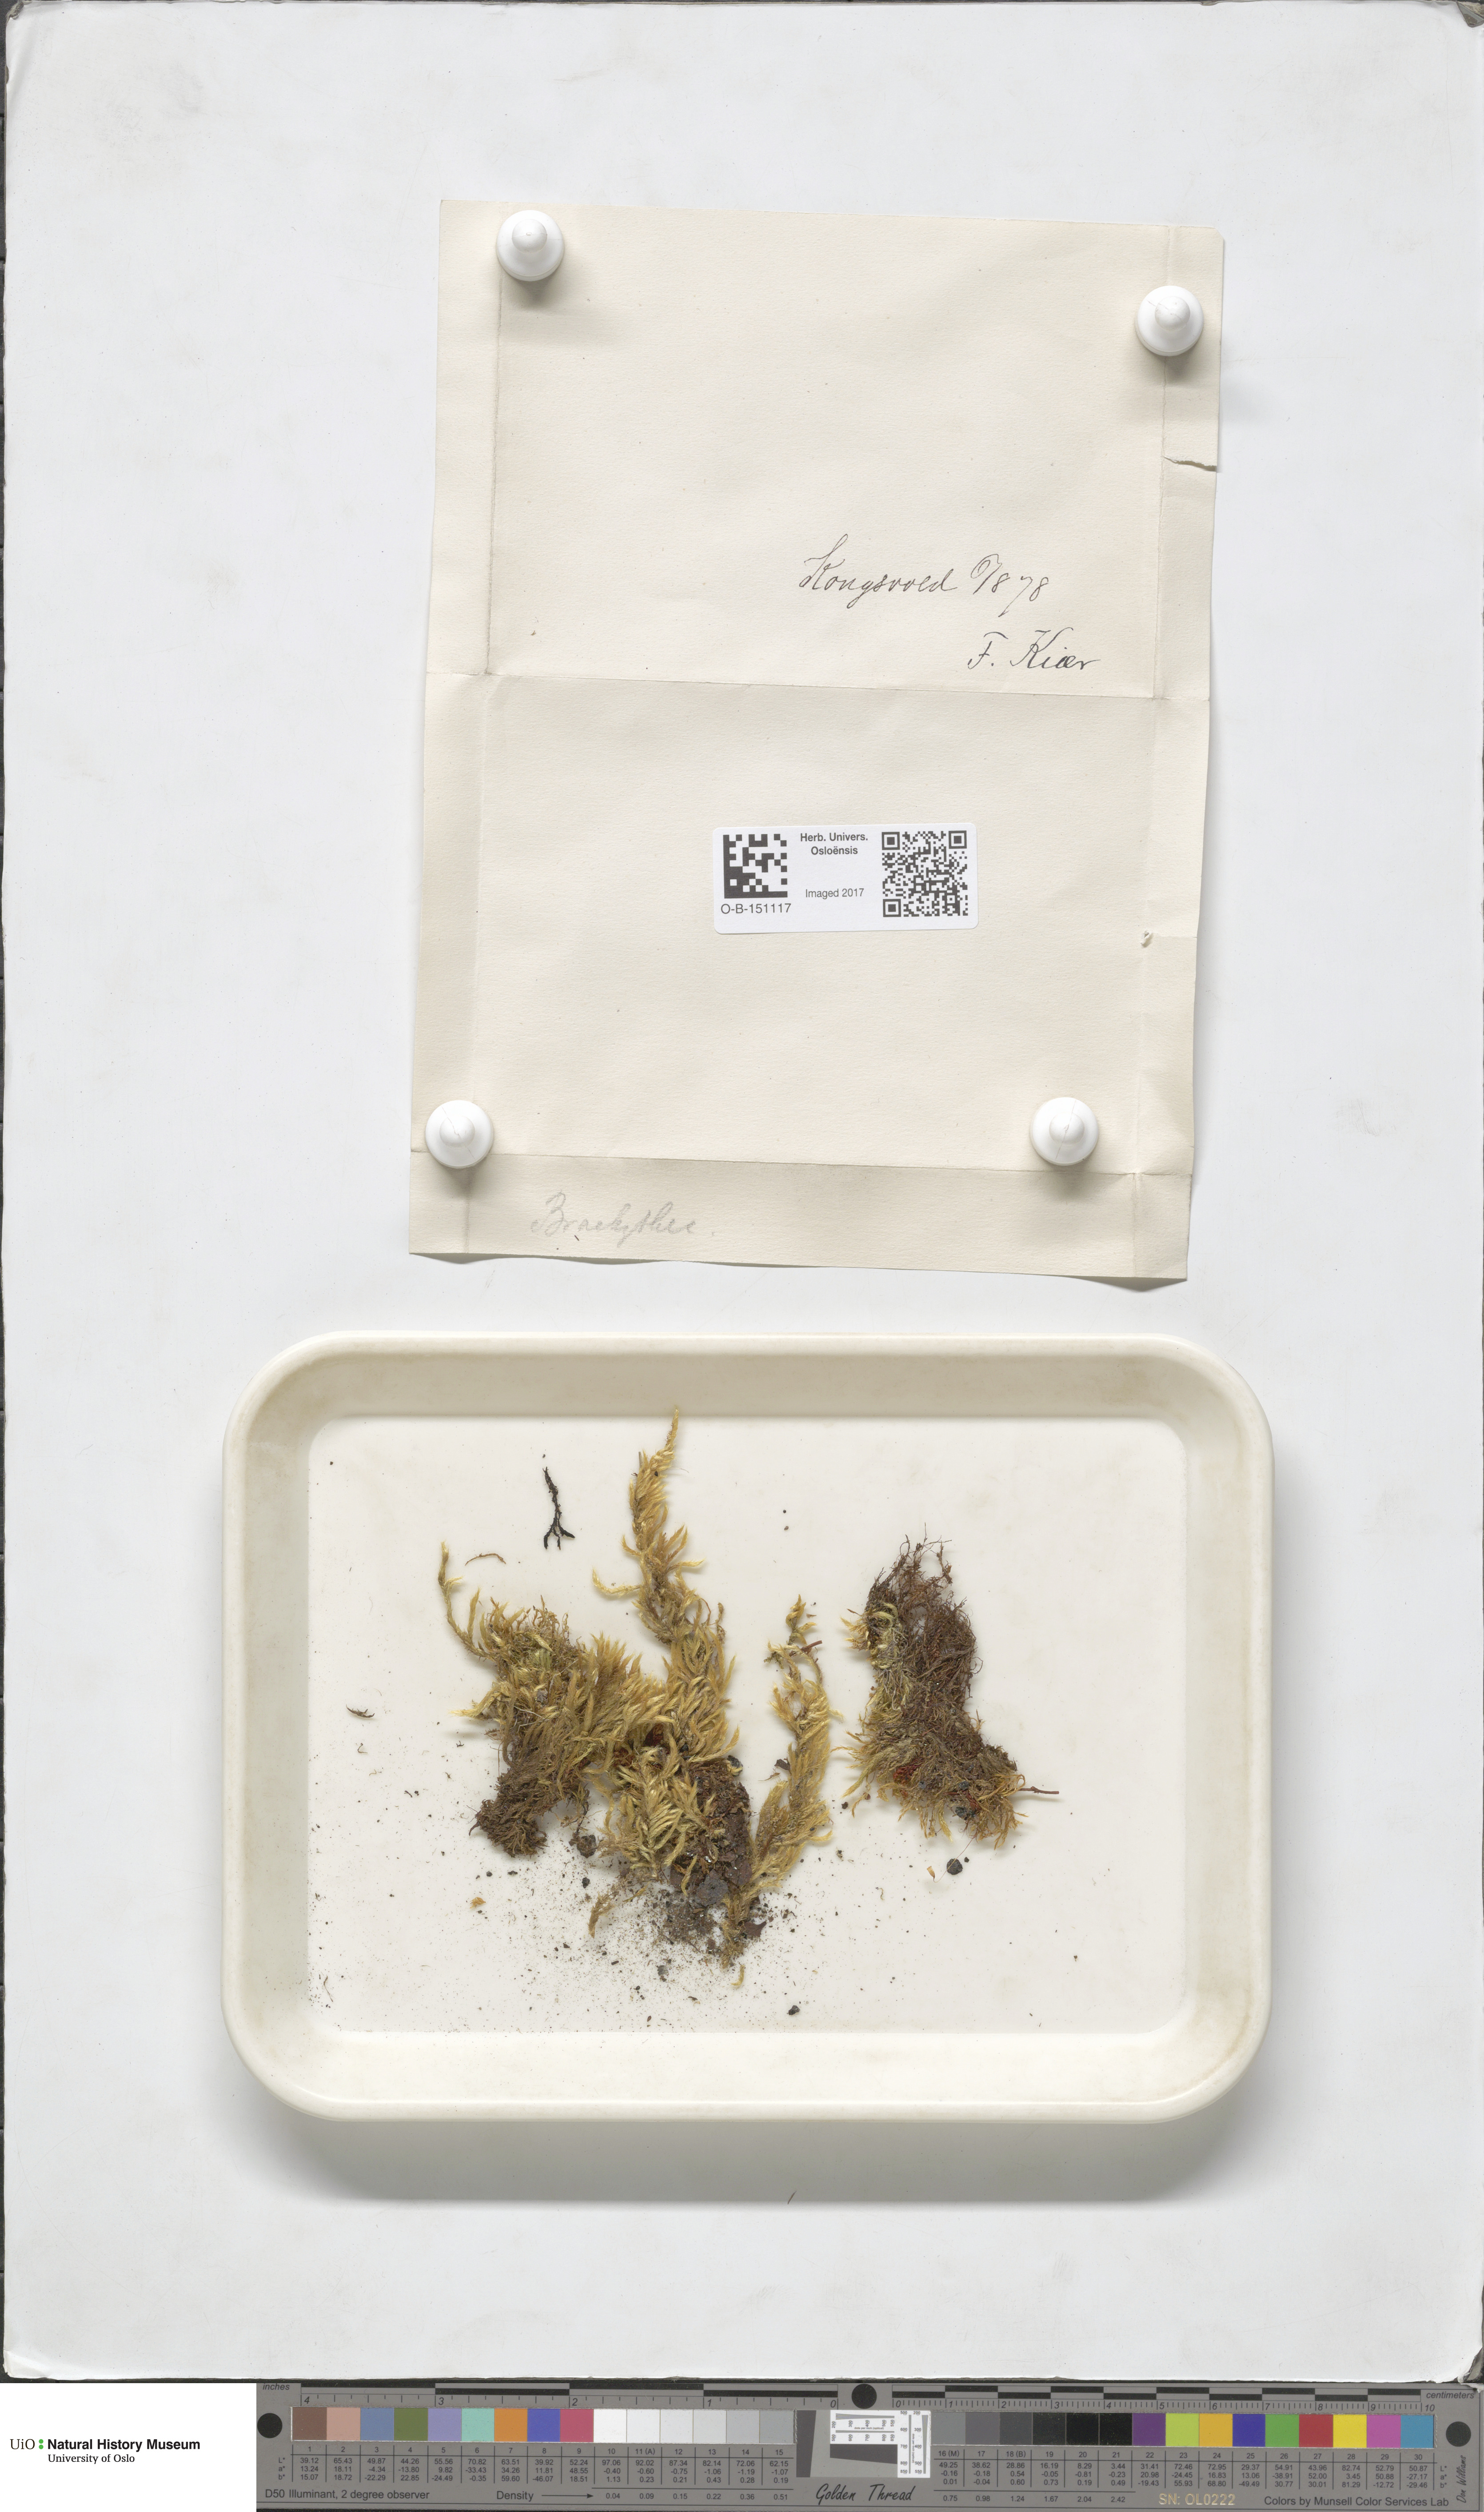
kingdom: Plantae
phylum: Bryophyta
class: Bryopsida
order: Hypnales
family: Brachytheciaceae
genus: Brachythecium
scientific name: Brachythecium
